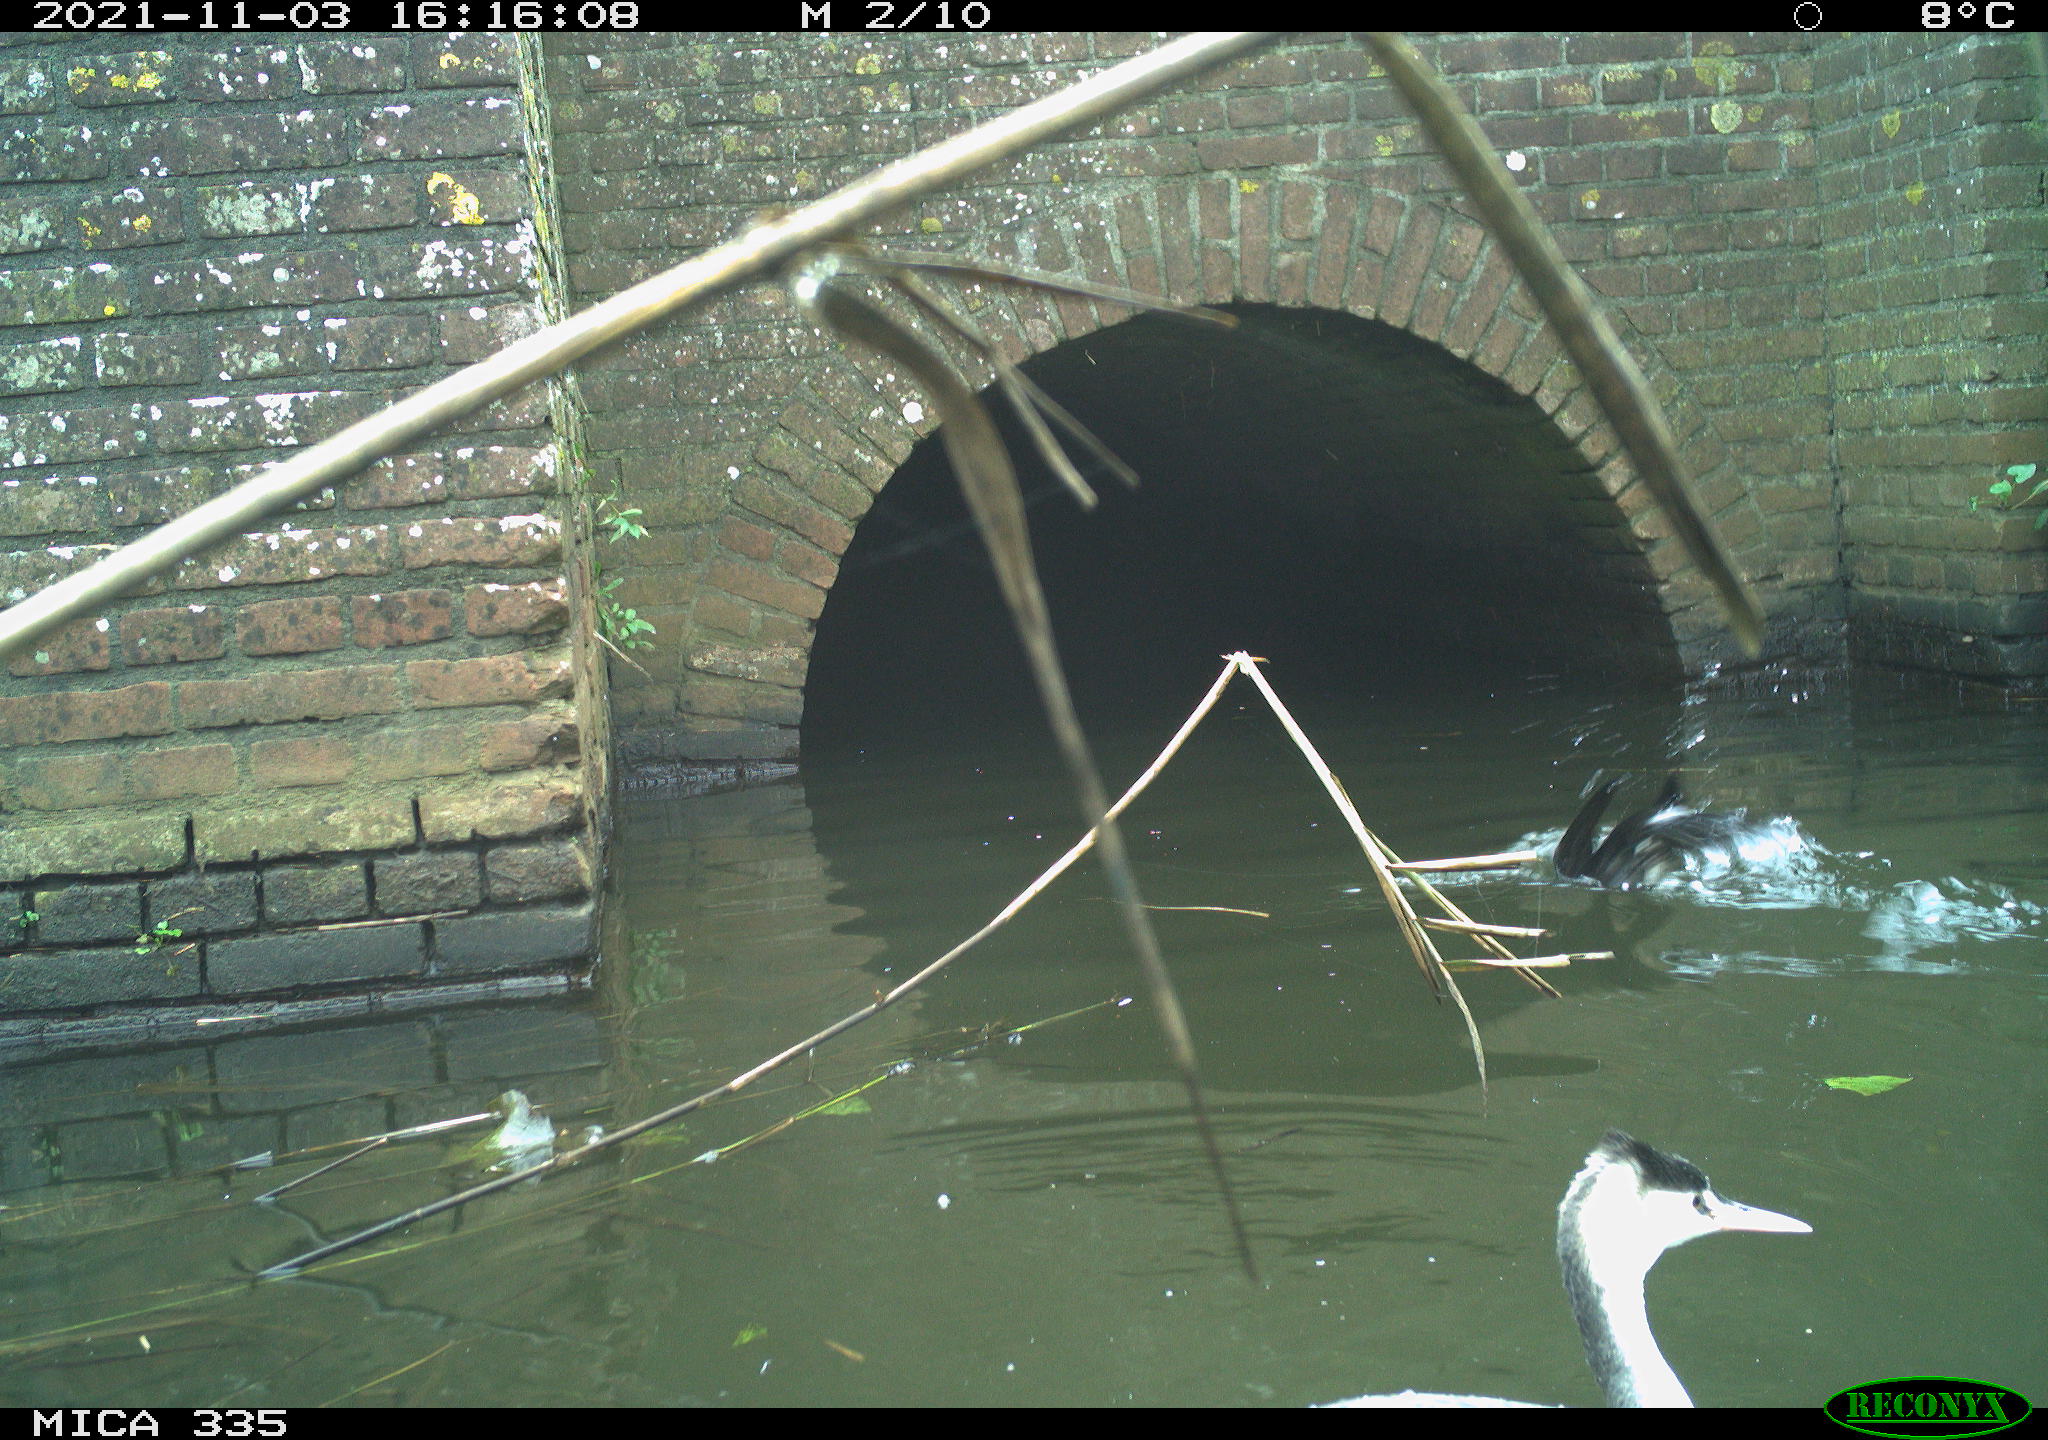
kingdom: Animalia
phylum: Chordata
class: Aves
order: Suliformes
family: Phalacrocoracidae
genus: Phalacrocorax
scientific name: Phalacrocorax carbo
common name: Great cormorant
